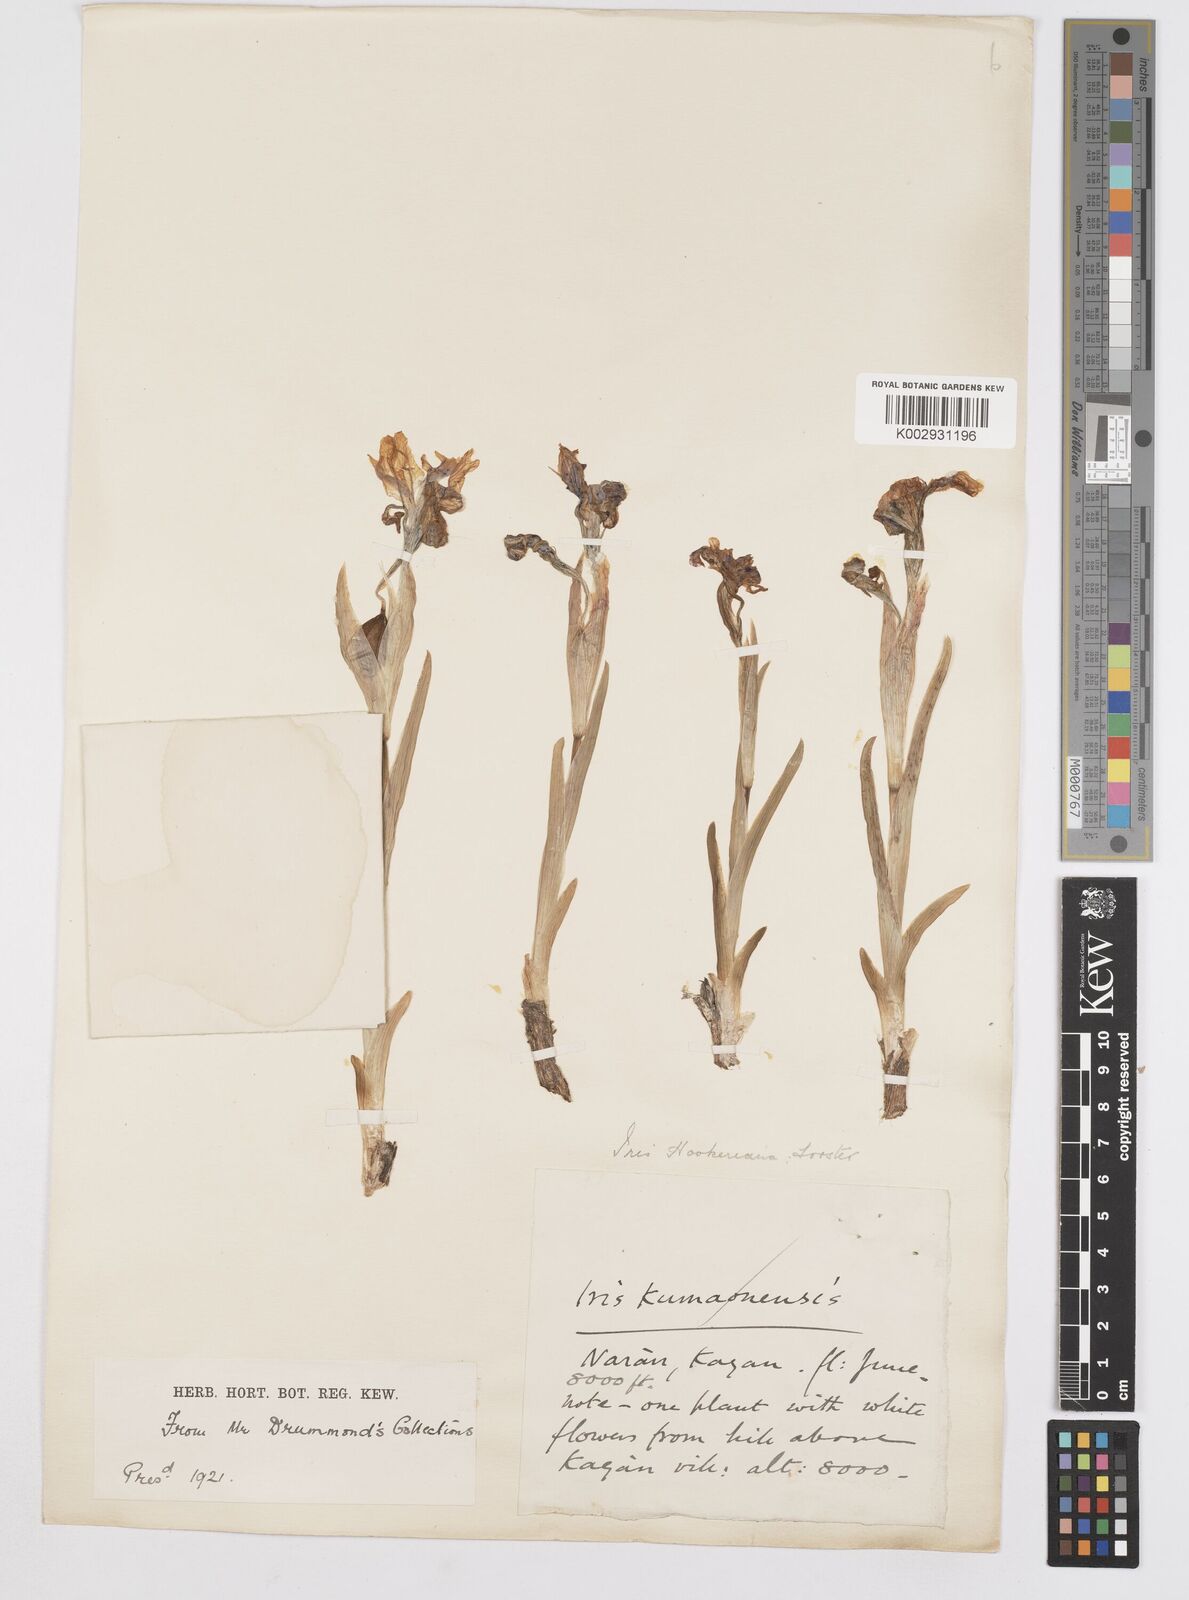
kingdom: Plantae
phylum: Tracheophyta
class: Liliopsida
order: Asparagales
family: Iridaceae
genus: Iris
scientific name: Iris hookeriana
